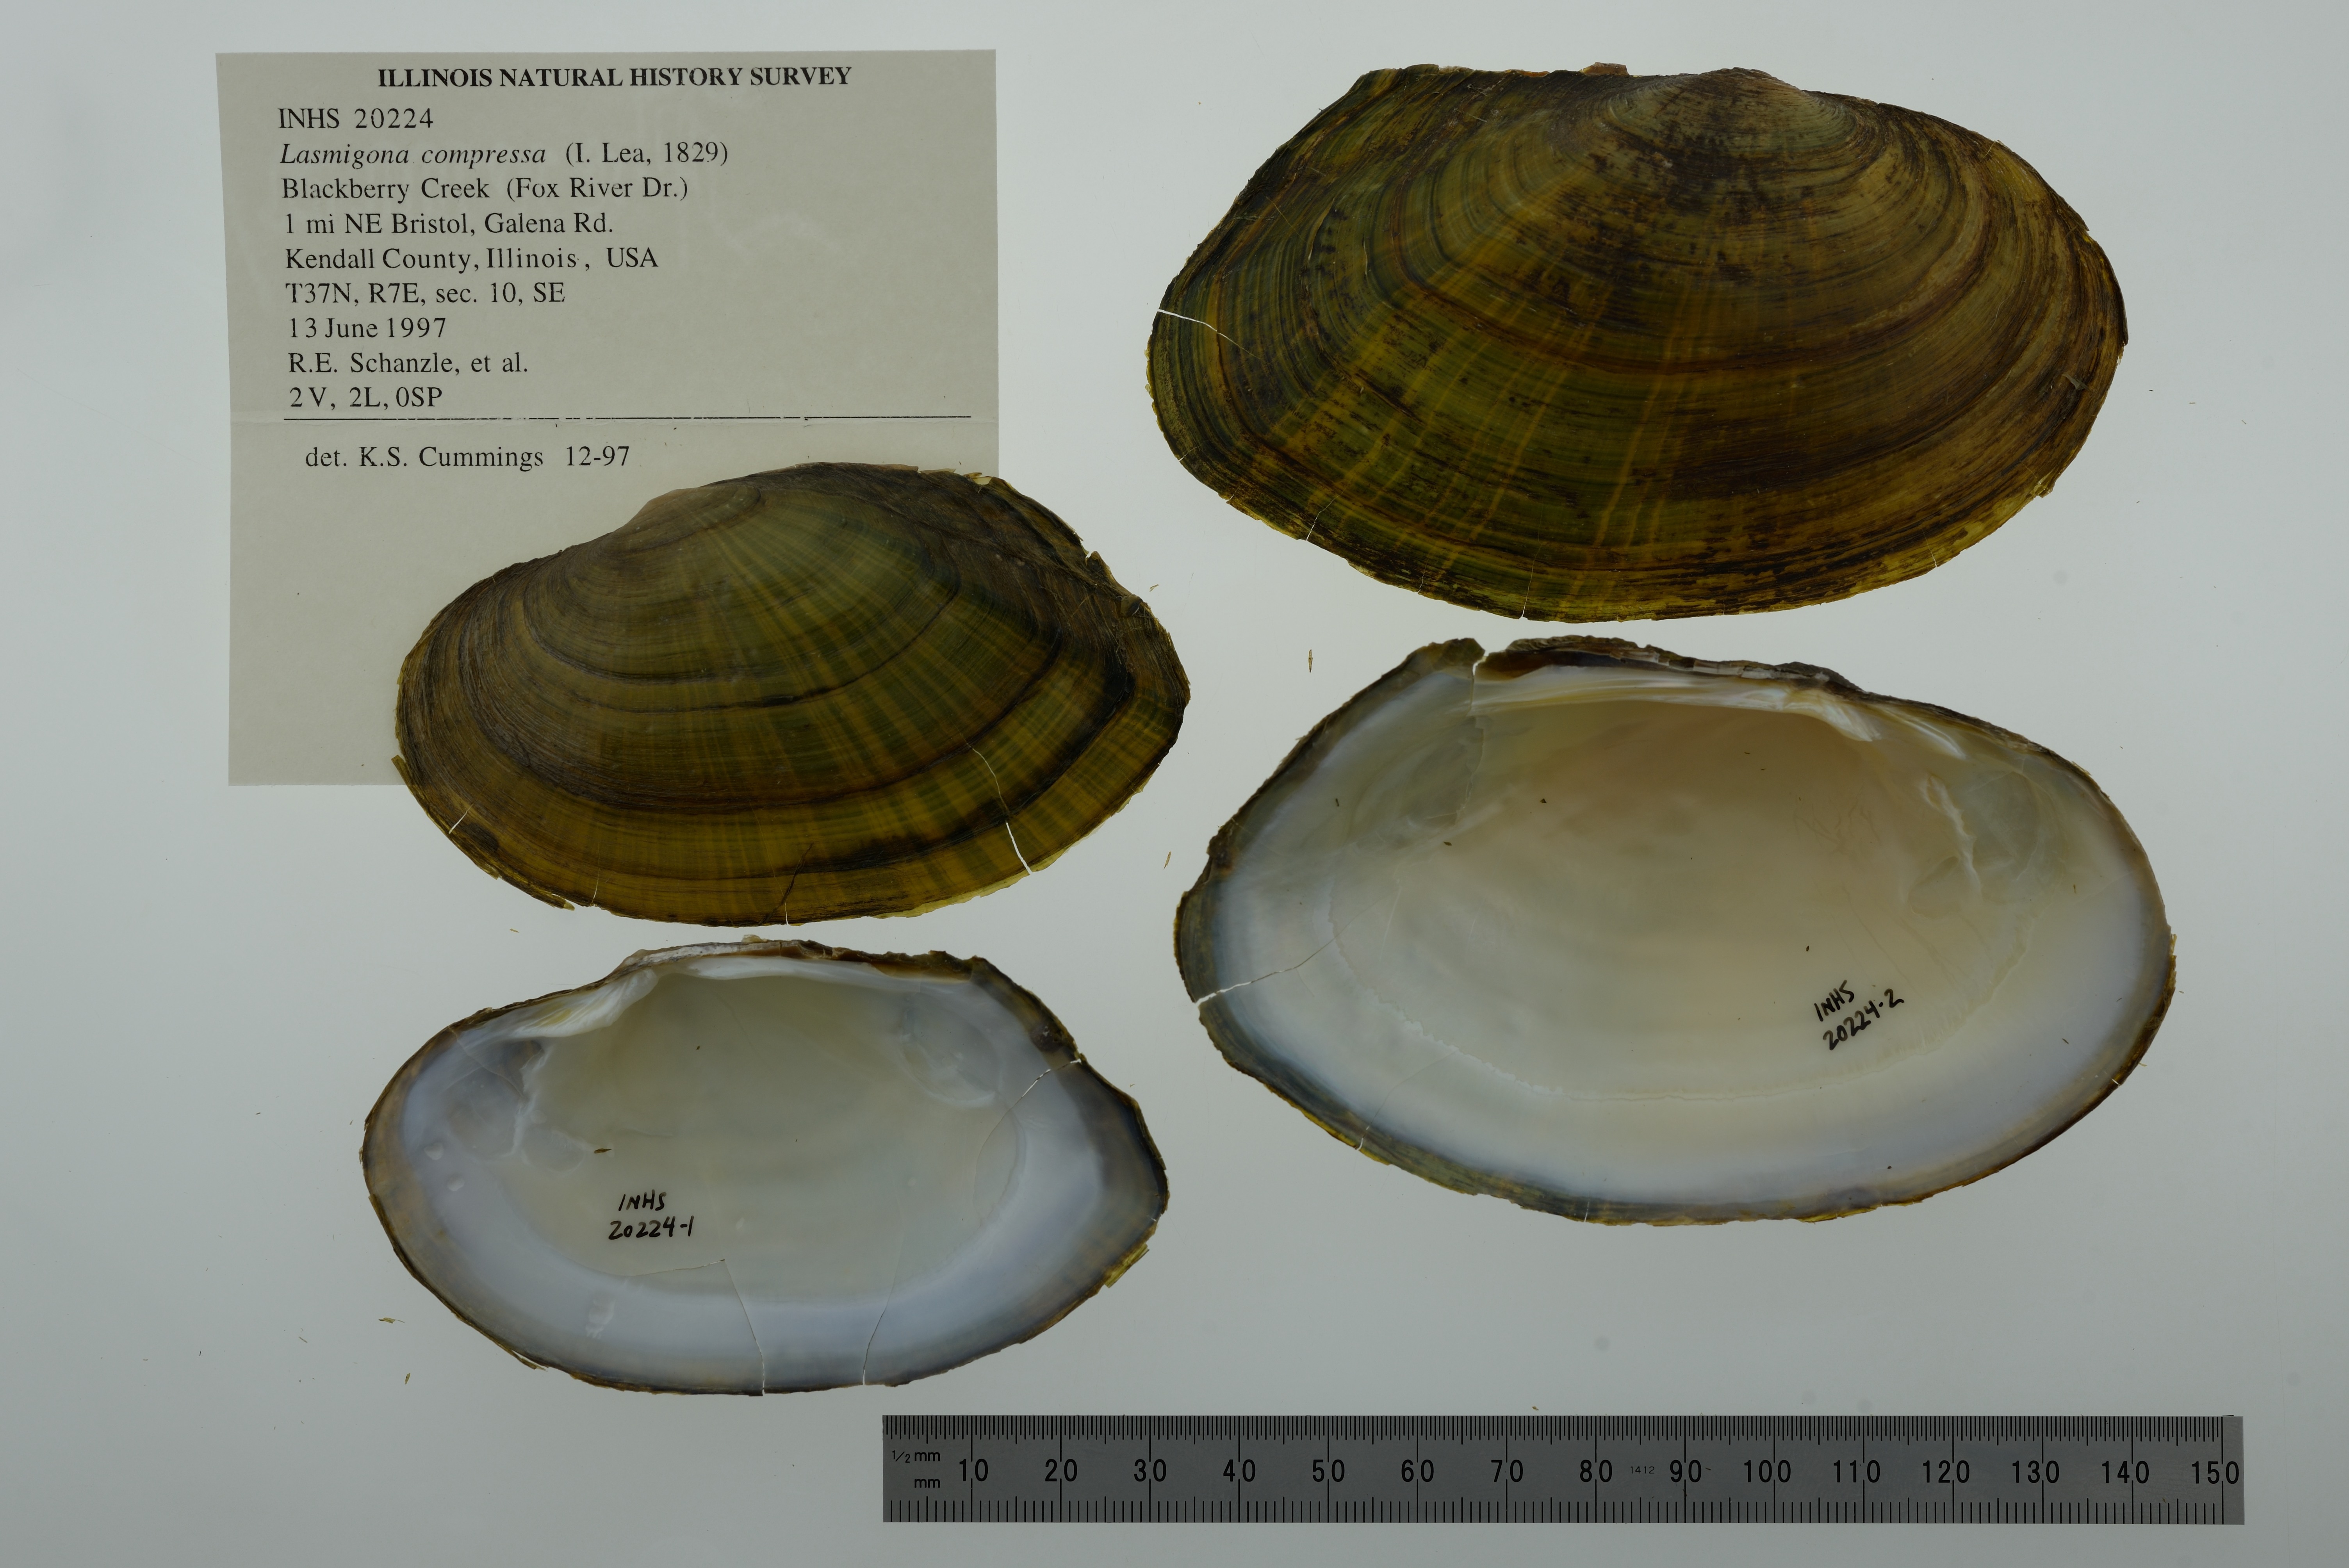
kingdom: Animalia
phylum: Mollusca
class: Bivalvia
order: Unionida
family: Unionidae
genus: Lasmigona
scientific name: Lasmigona compressa
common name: Creek heelsplitter
